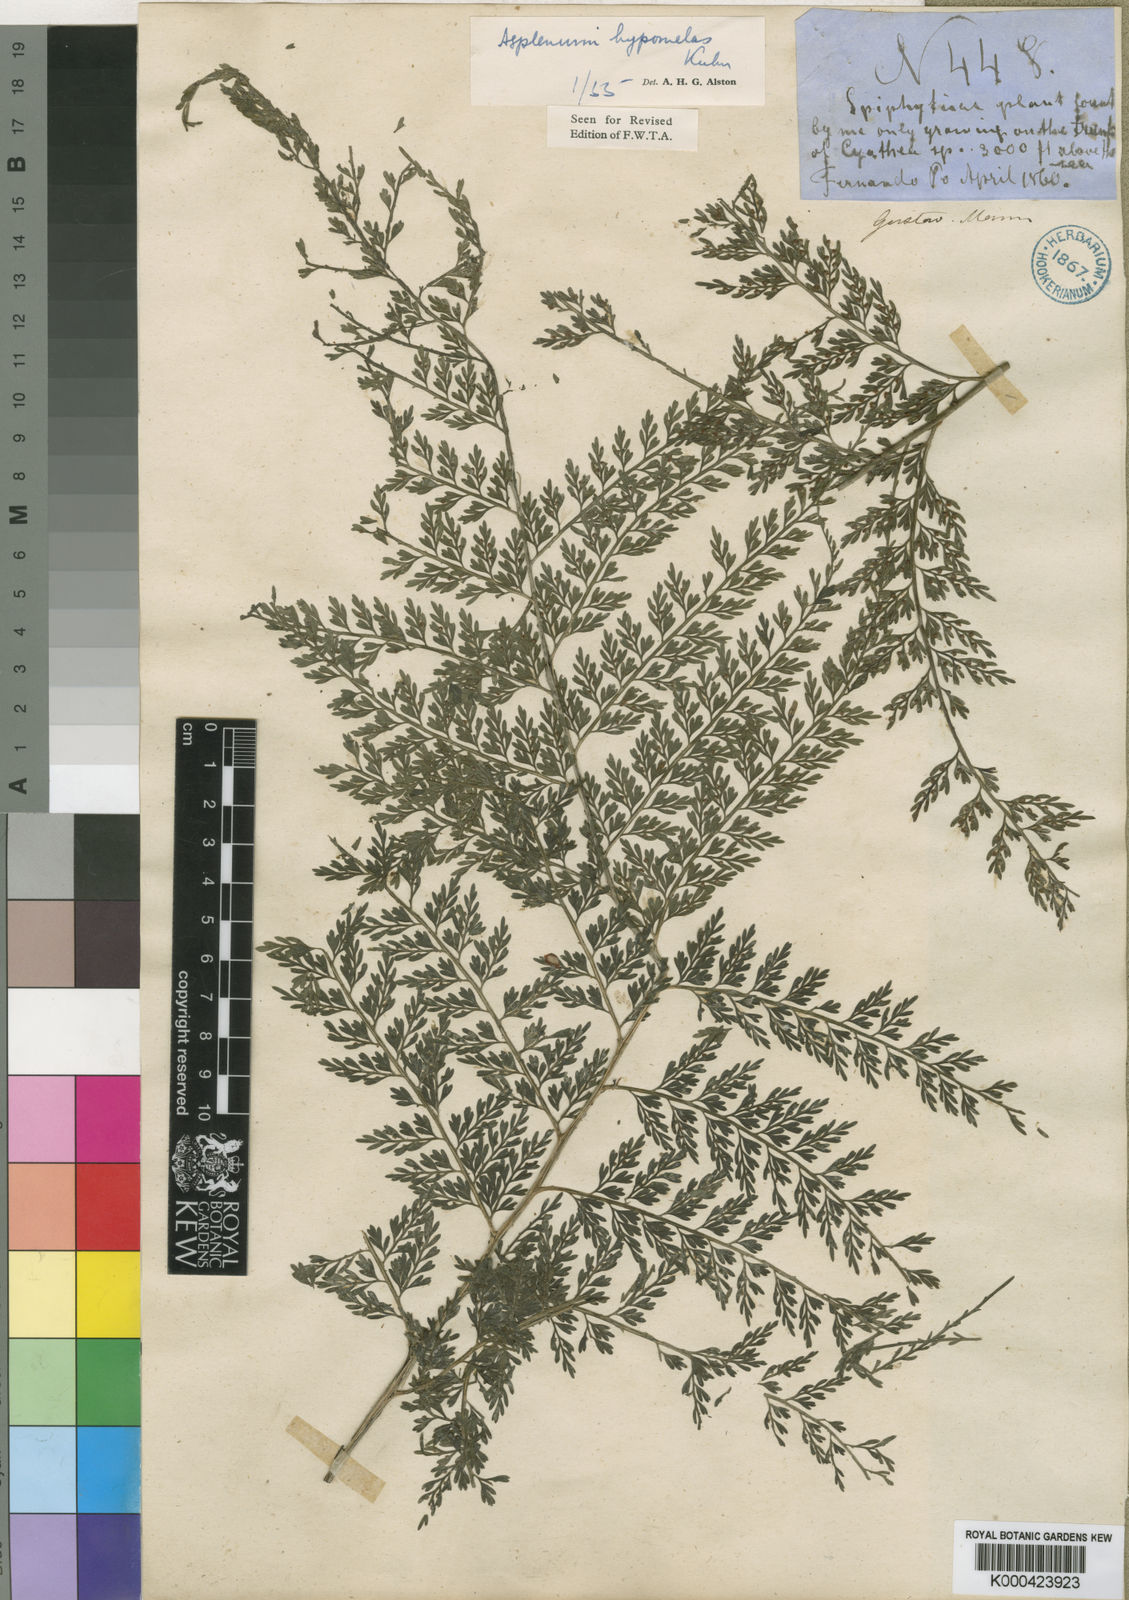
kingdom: Plantae
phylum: Tracheophyta
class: Polypodiopsida
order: Polypodiales
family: Aspleniaceae
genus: Asplenium
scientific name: Asplenium hypomelas
